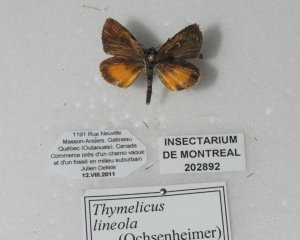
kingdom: Animalia
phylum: Arthropoda
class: Insecta
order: Lepidoptera
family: Hesperiidae
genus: Ancyloxypha
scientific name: Ancyloxypha numitor
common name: Least Skipper
